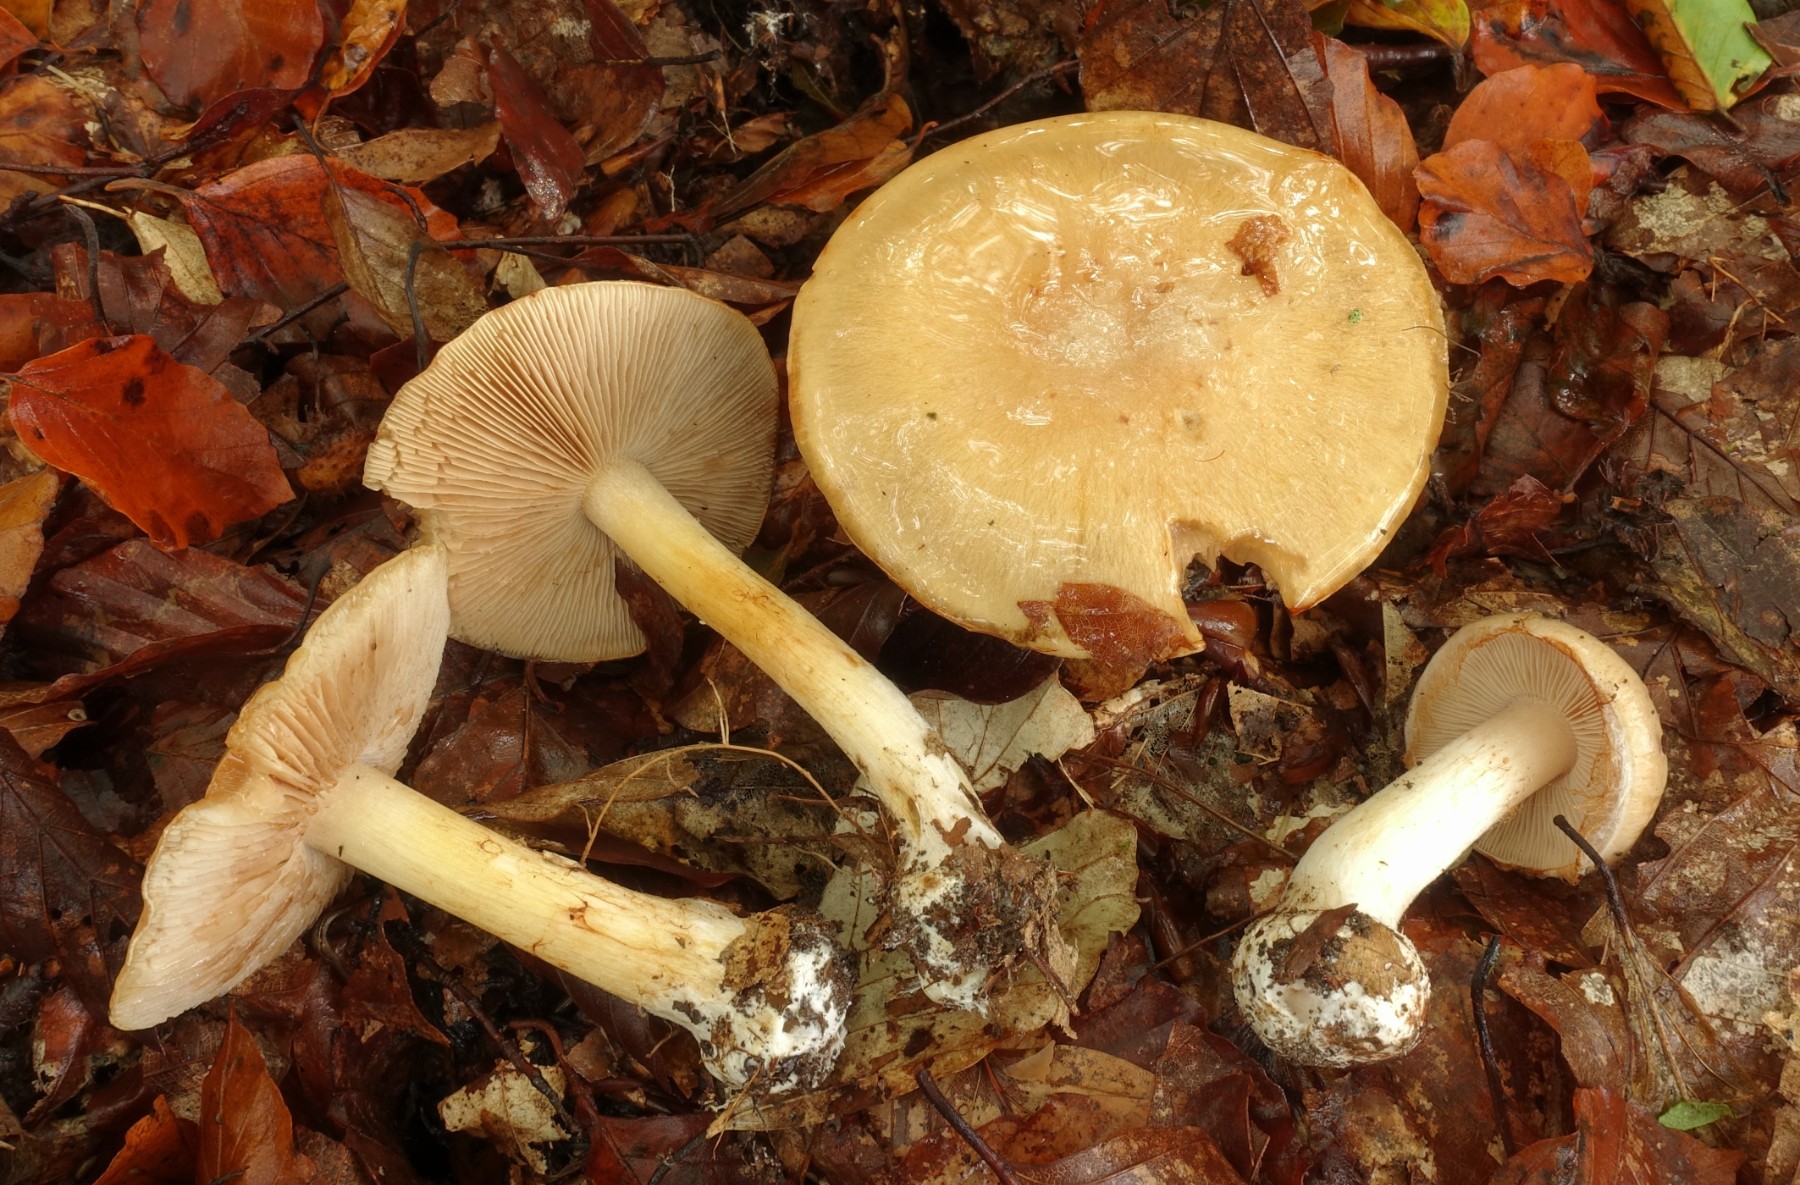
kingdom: Fungi
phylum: Basidiomycota
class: Agaricomycetes
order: Agaricales
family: Cortinariaceae
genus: Thaxterogaster
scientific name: Thaxterogaster talus
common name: knogle-slørhat
